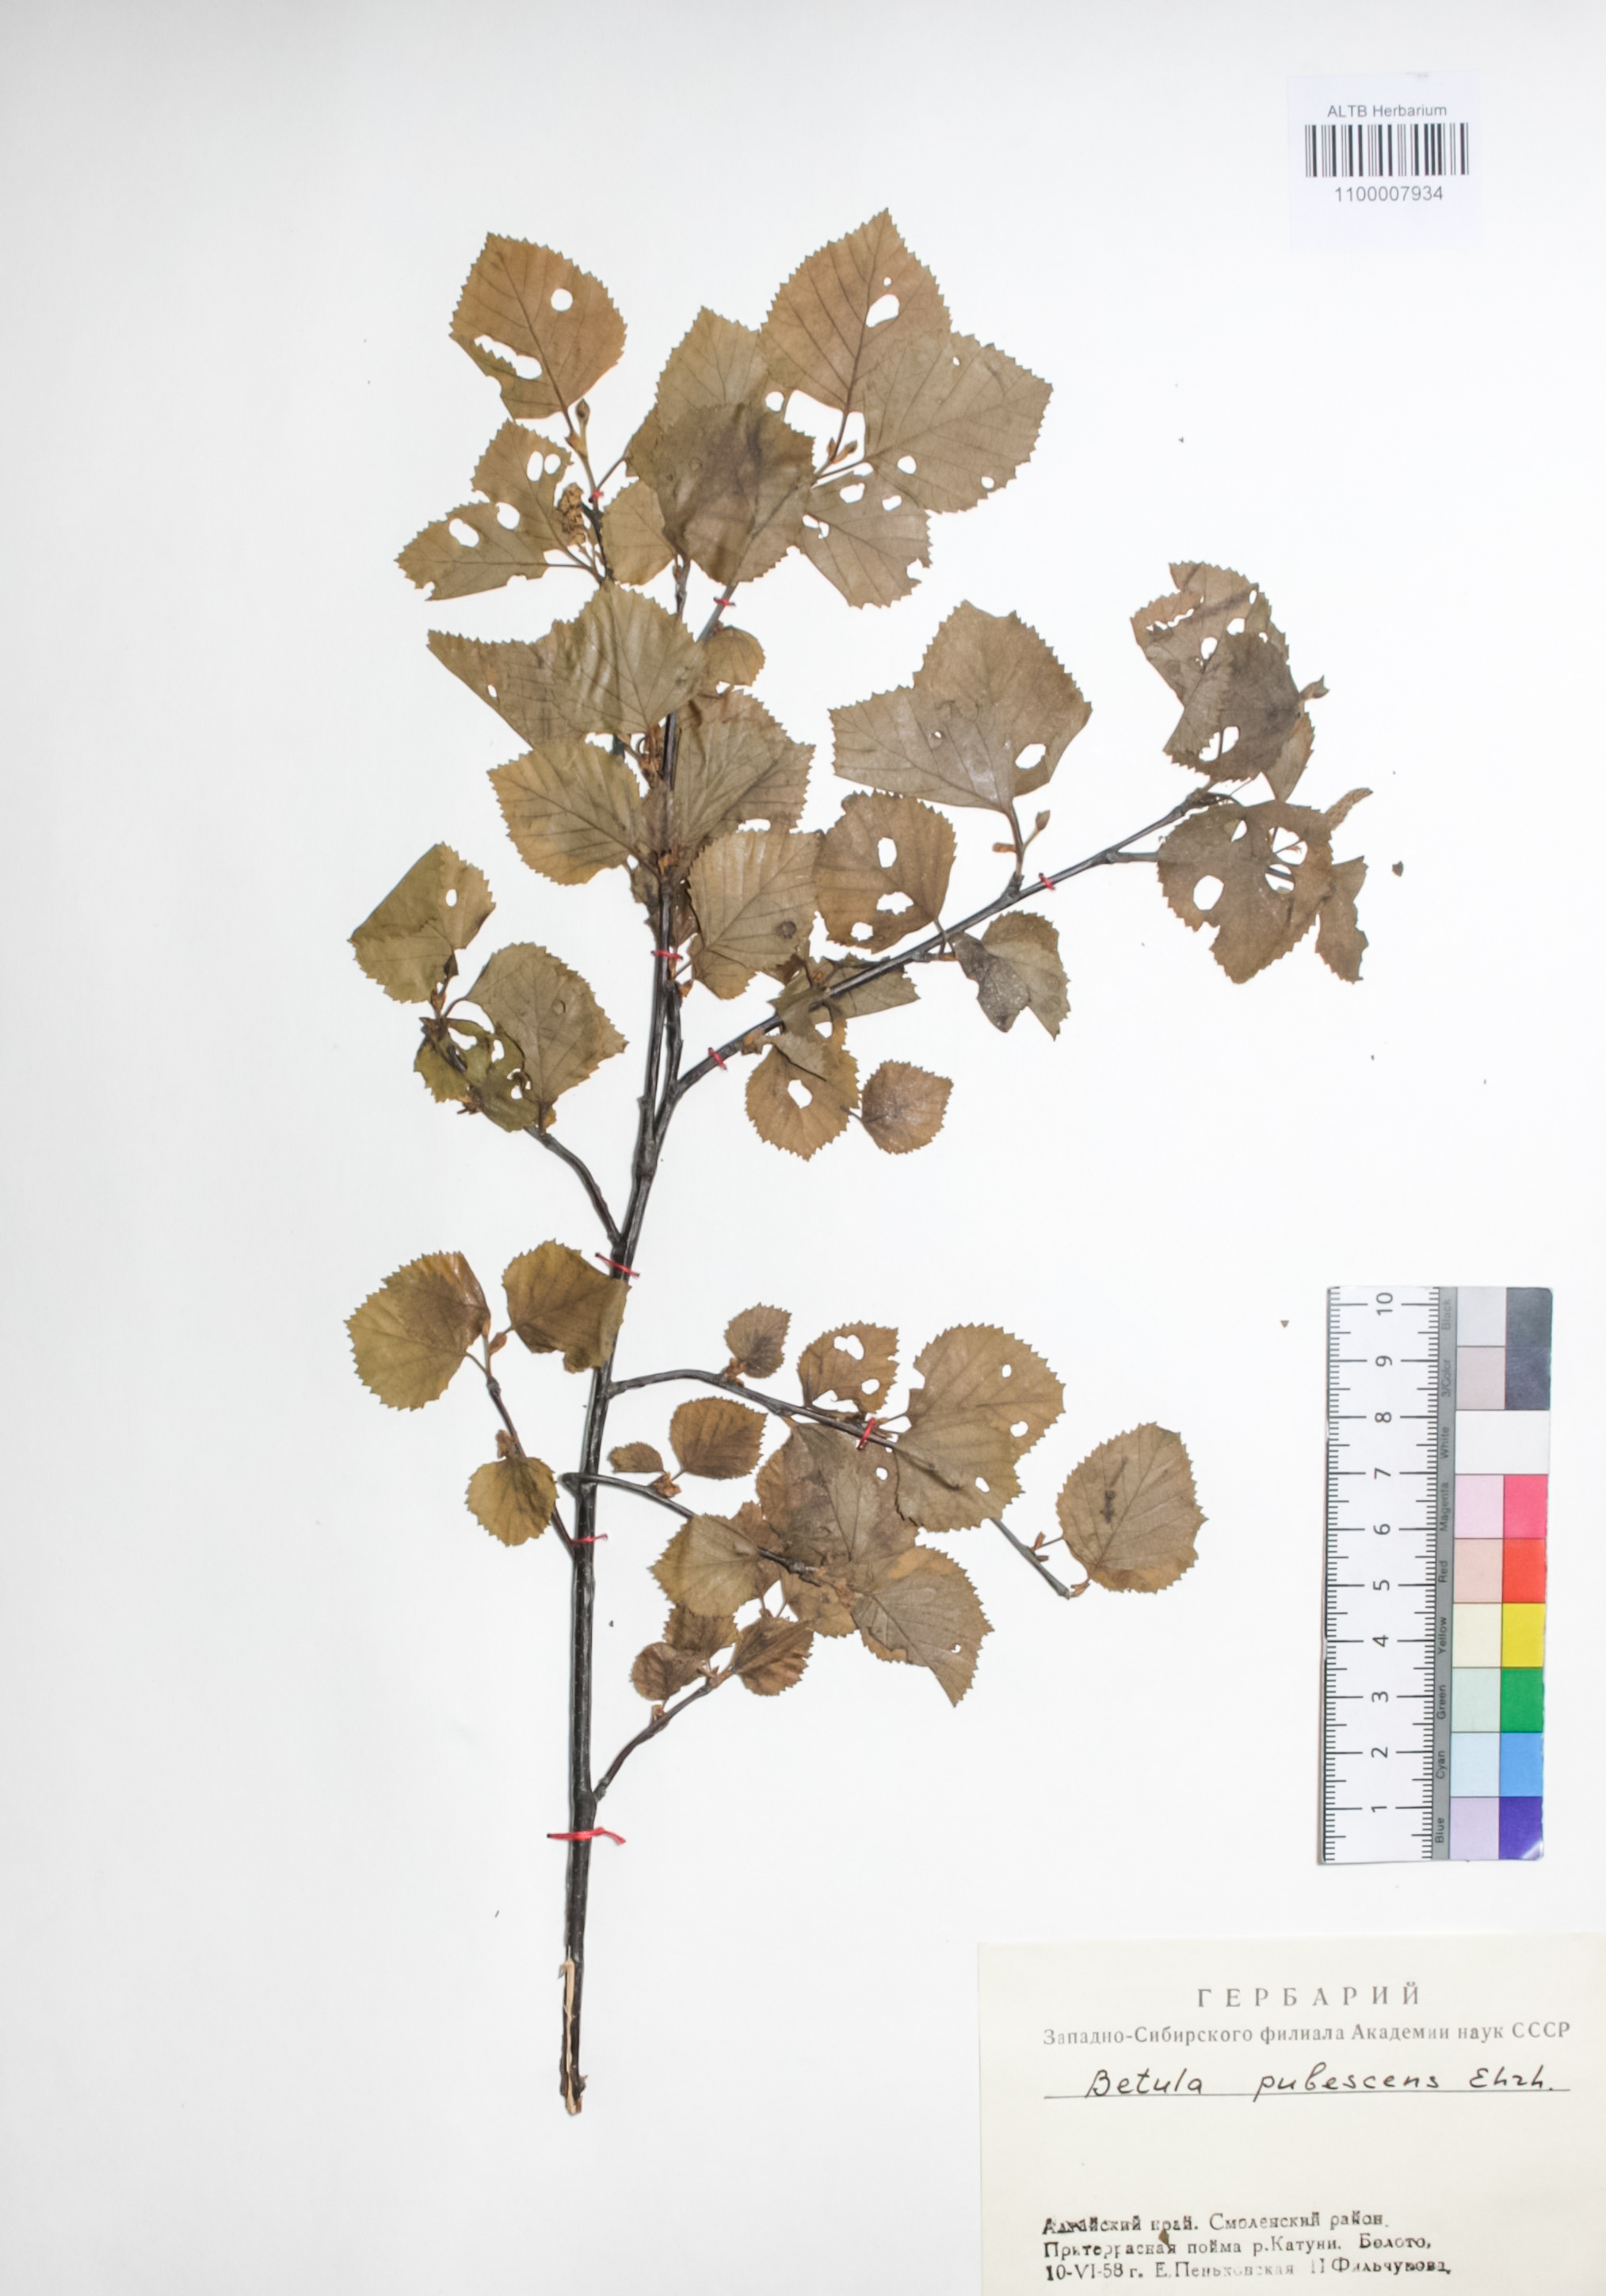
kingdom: Plantae
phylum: Tracheophyta
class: Magnoliopsida
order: Fagales
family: Betulaceae
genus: Betula
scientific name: Betula pubescens
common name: Downy birch
